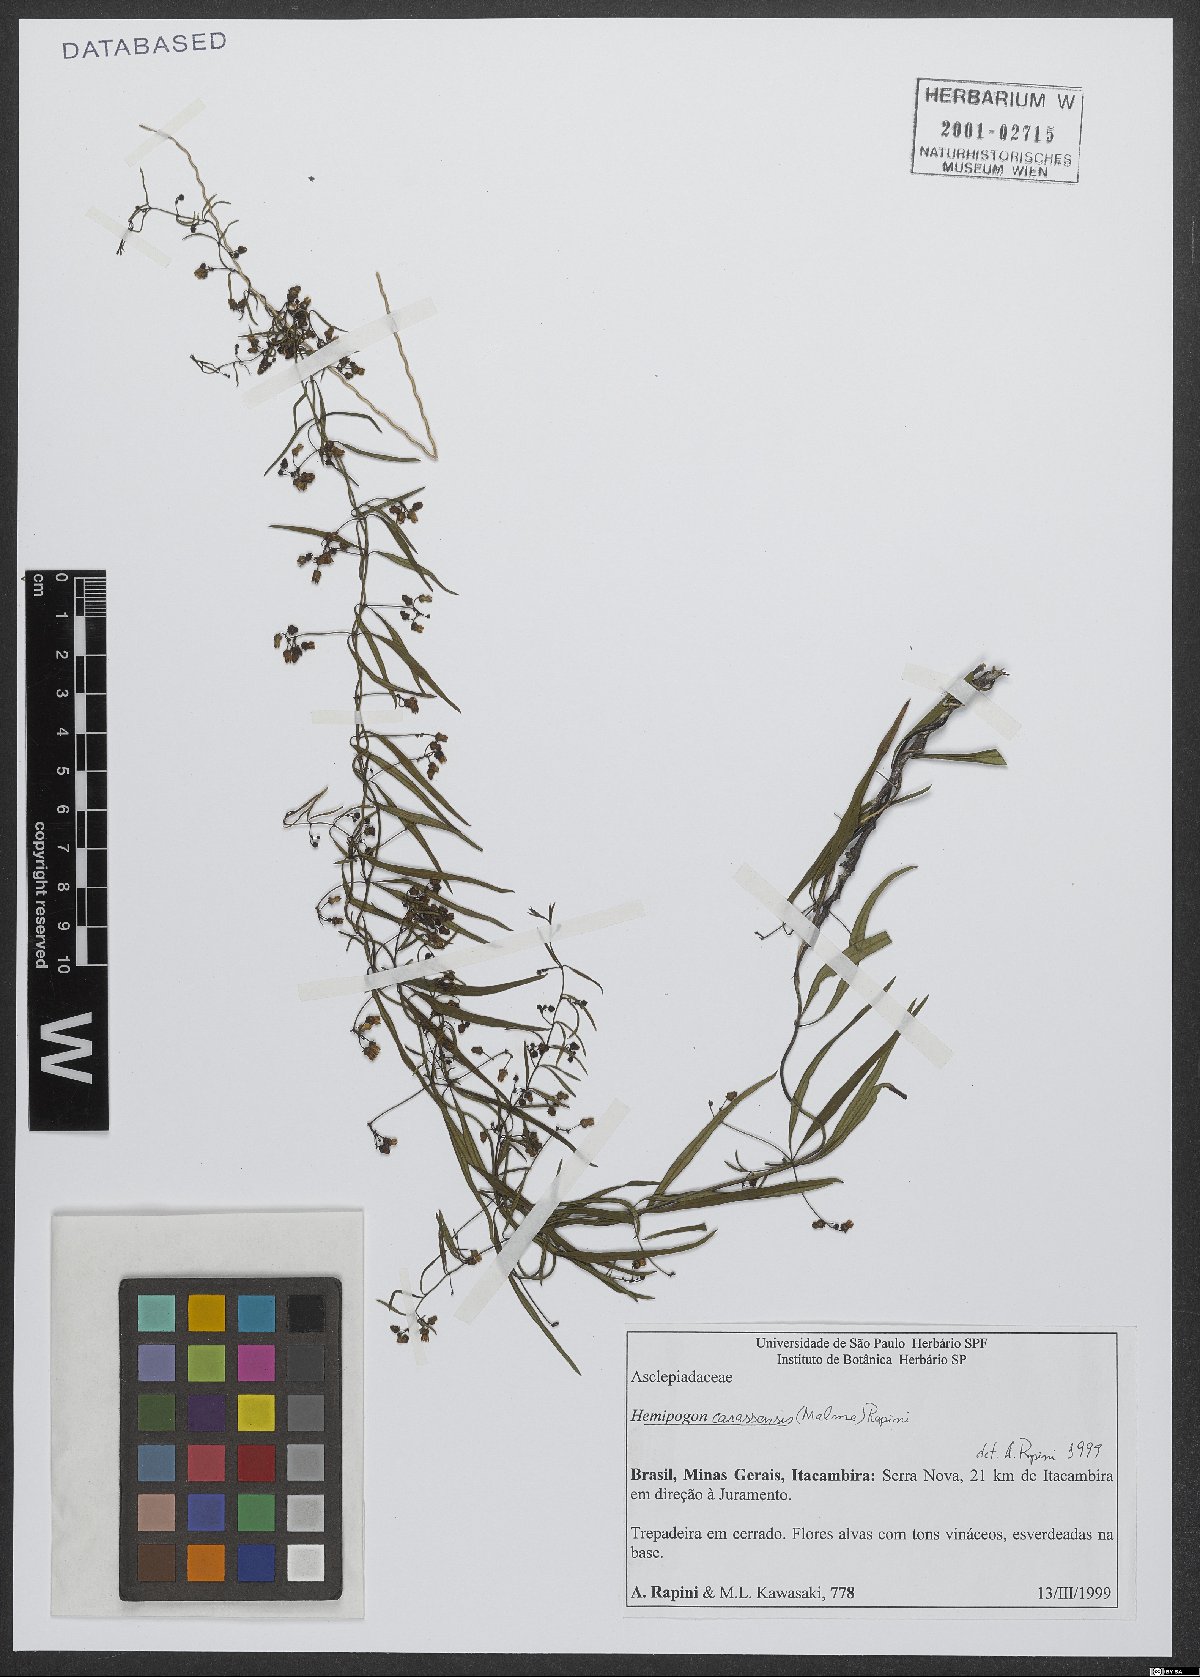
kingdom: Plantae
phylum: Tracheophyta
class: Magnoliopsida
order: Gentianales
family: Apocynaceae
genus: Morilloa
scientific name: Morilloa carassensis
